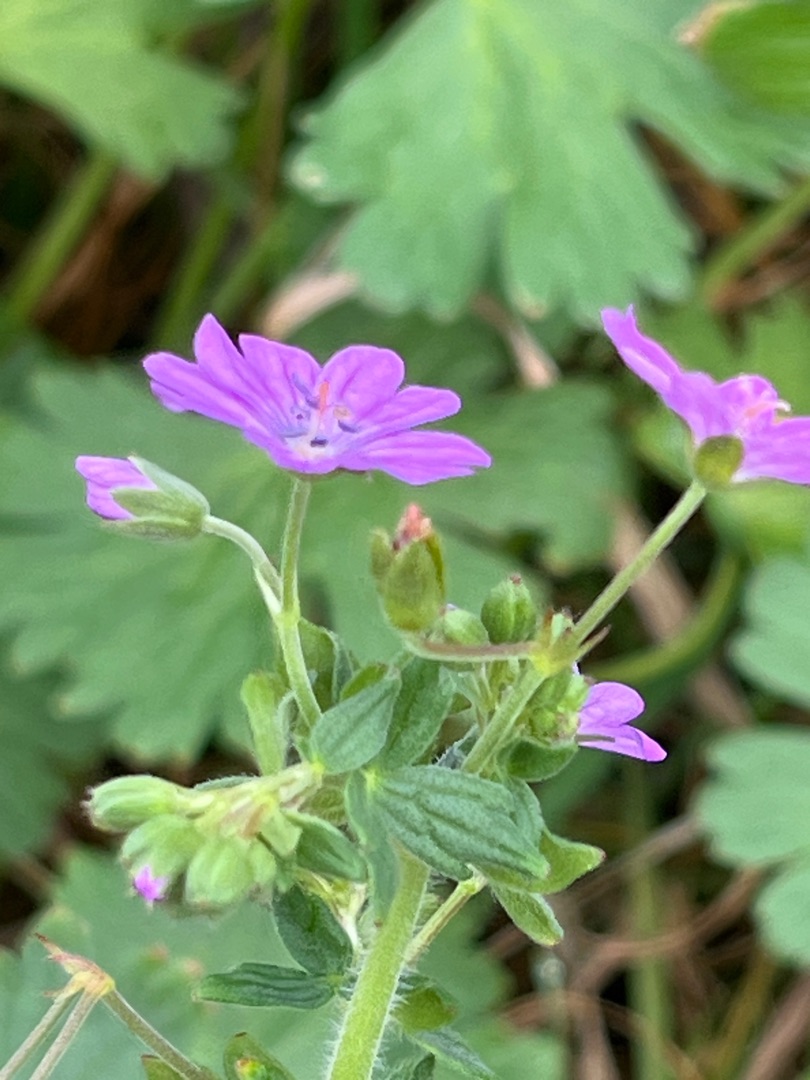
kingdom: Plantae
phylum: Tracheophyta
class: Magnoliopsida
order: Geraniales
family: Geraniaceae
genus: Geranium
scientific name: Geranium pyrenaicum
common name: Pyrenæisk storkenæb
